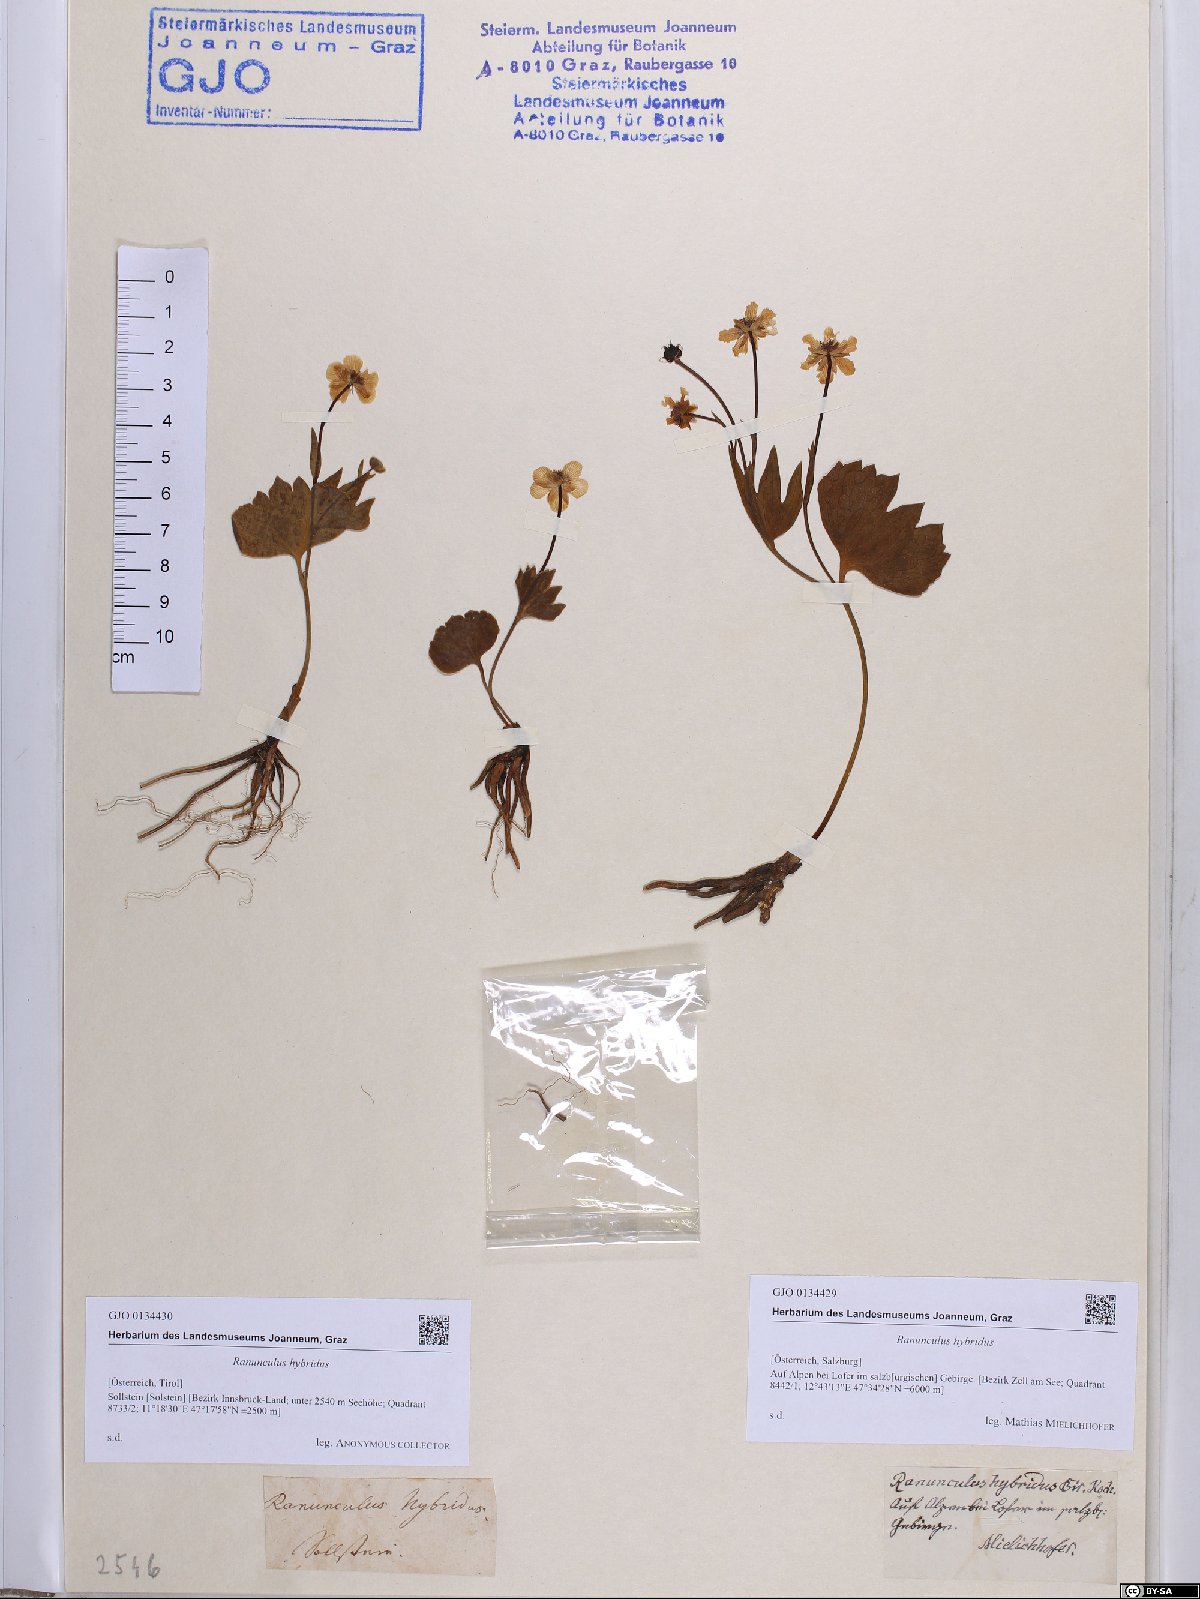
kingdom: Plantae
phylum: Tracheophyta
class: Magnoliopsida
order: Ranunculales
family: Ranunculaceae
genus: Ranunculus
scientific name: Ranunculus hybridus
